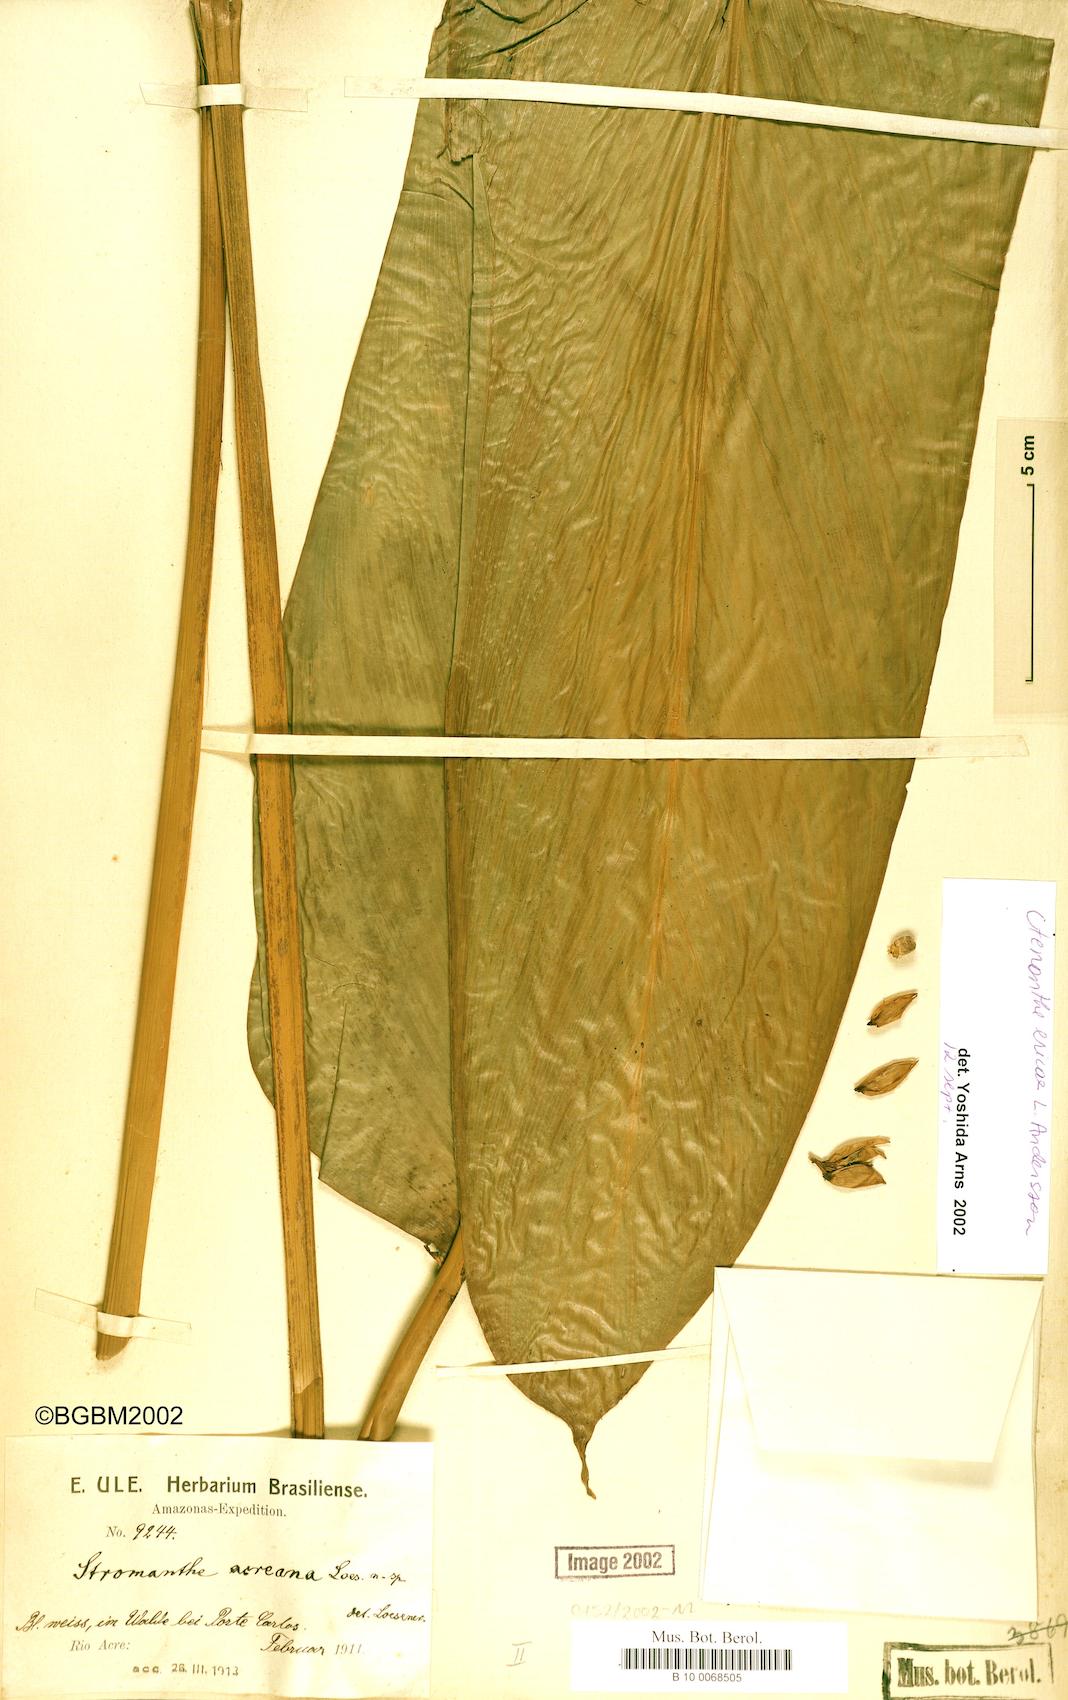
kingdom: Plantae
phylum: Tracheophyta
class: Liliopsida
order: Zingiberales
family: Marantaceae
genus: Ctenanthe
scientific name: Ctenanthe ericae
